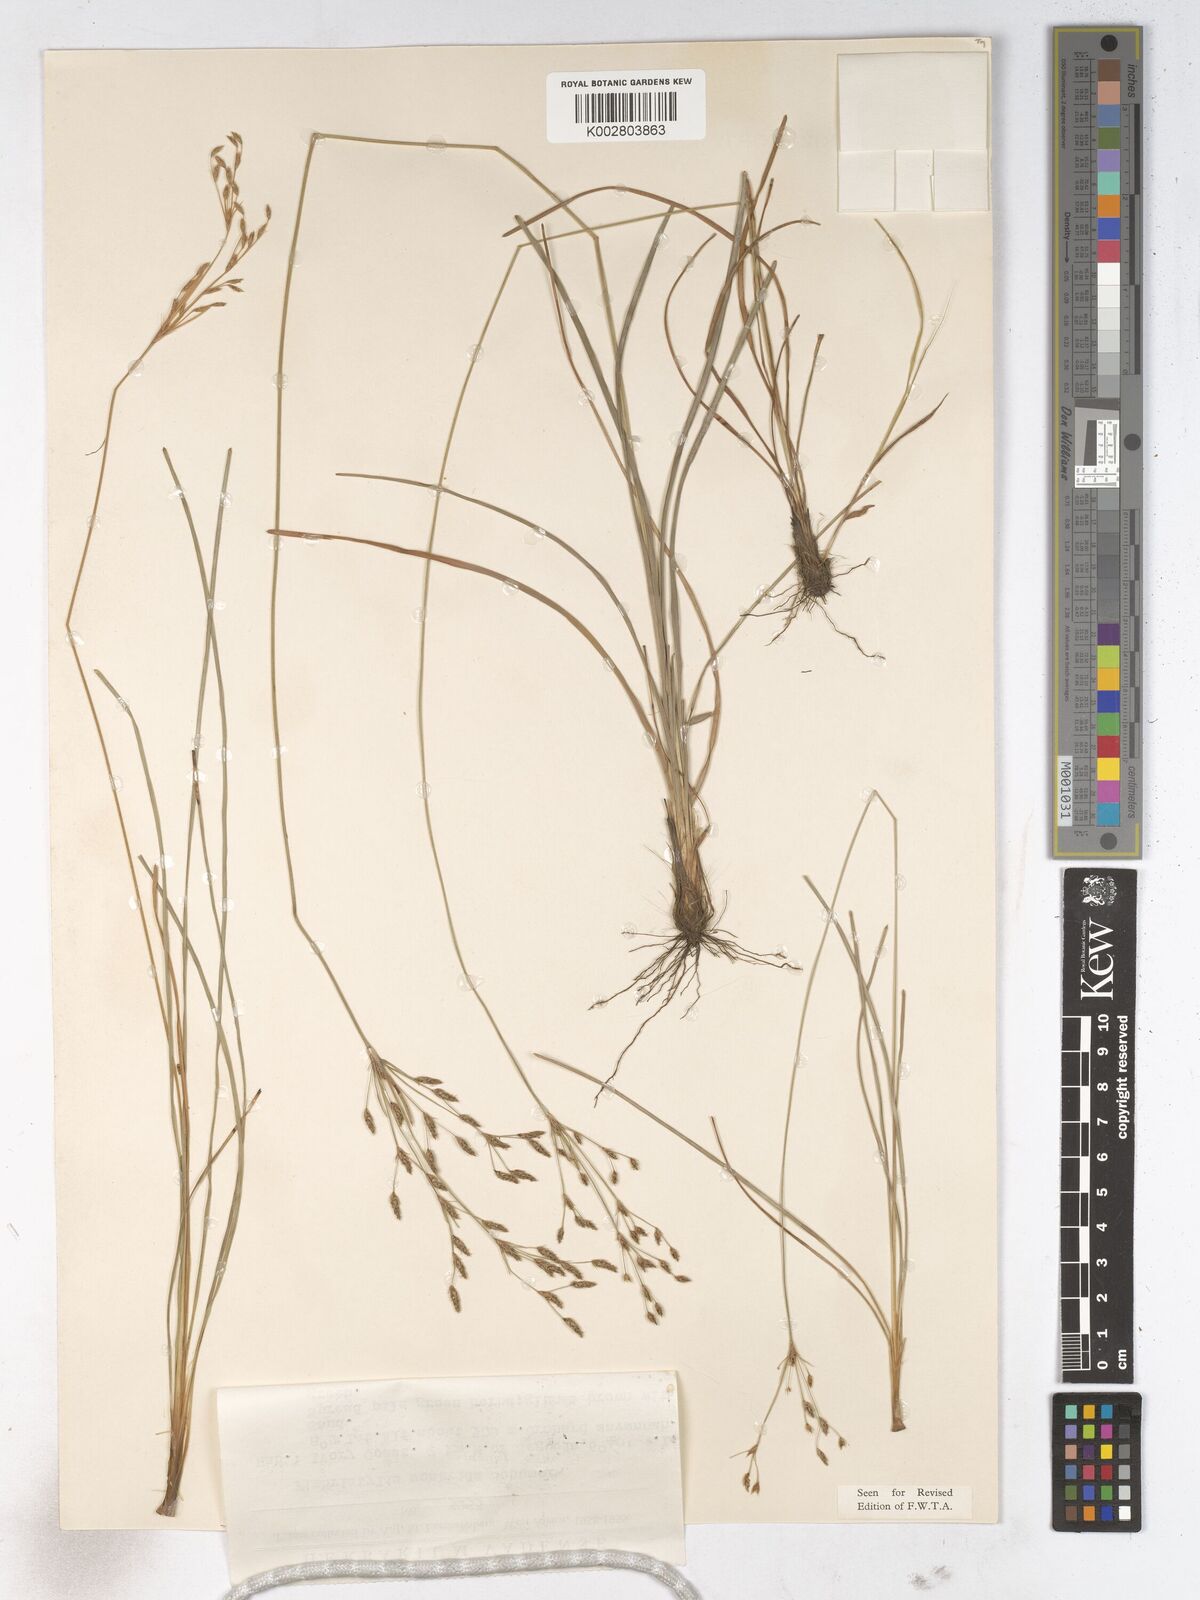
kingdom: Plantae
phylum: Tracheophyta
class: Liliopsida
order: Poales
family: Cyperaceae
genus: Fimbristylis
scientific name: Fimbristylis scabrida
